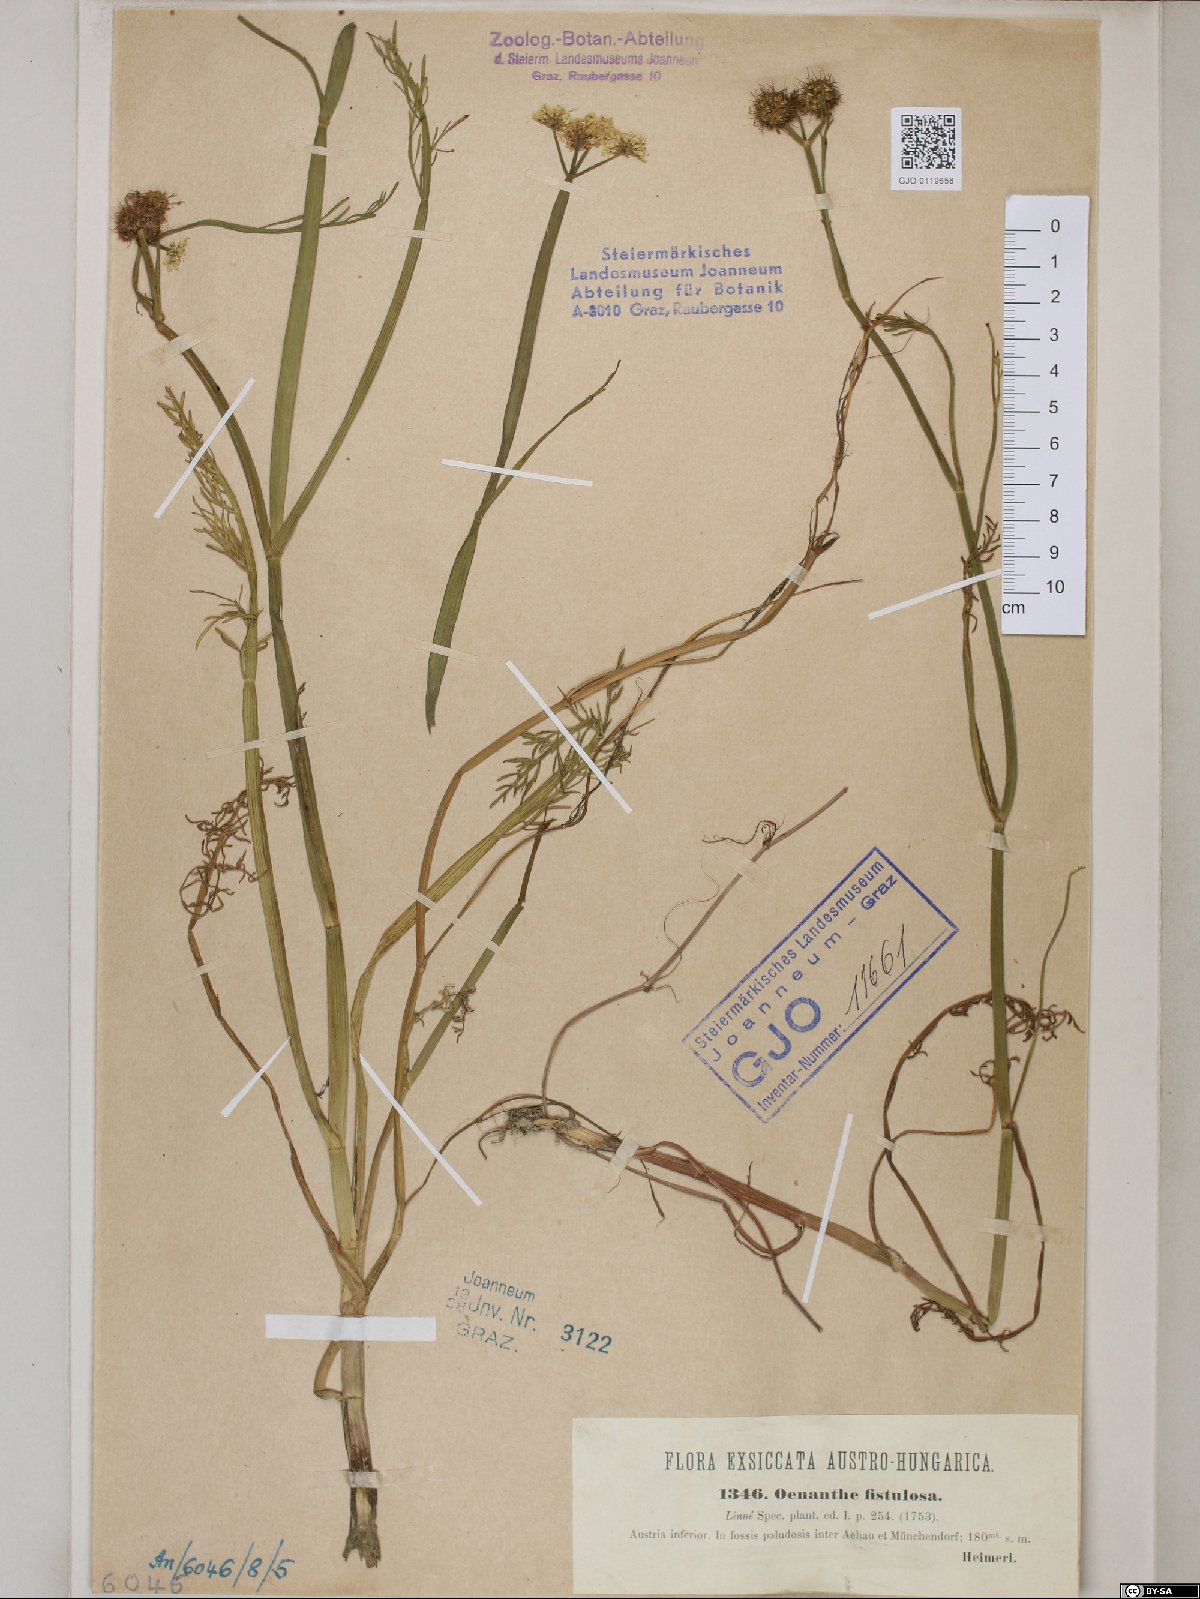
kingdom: Plantae
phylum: Tracheophyta
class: Magnoliopsida
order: Apiales
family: Apiaceae
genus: Oenanthe
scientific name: Oenanthe fistulosa
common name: Tubular water-dropwort
